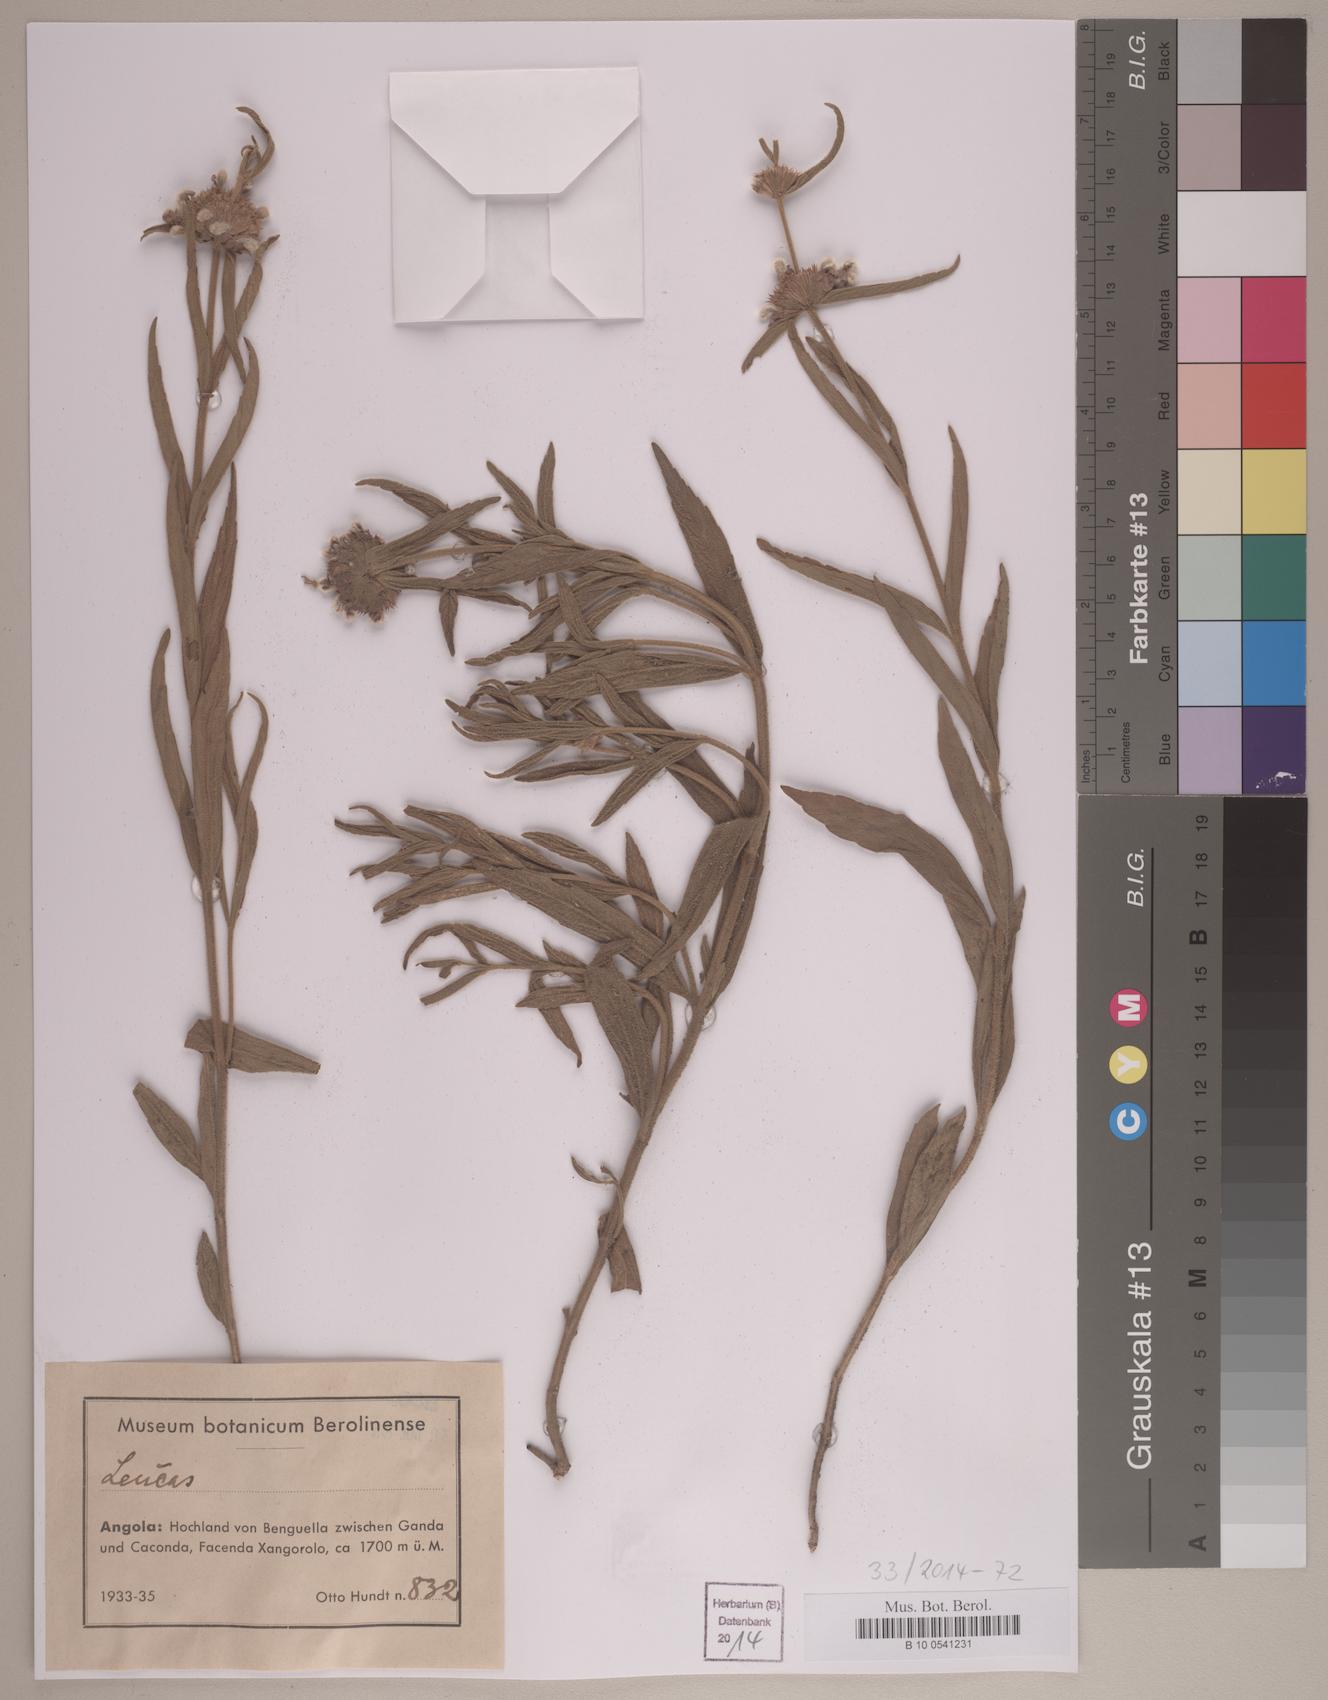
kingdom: Plantae
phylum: Tracheophyta
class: Magnoliopsida
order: Lamiales
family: Lamiaceae
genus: Leucas
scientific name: Leucas
